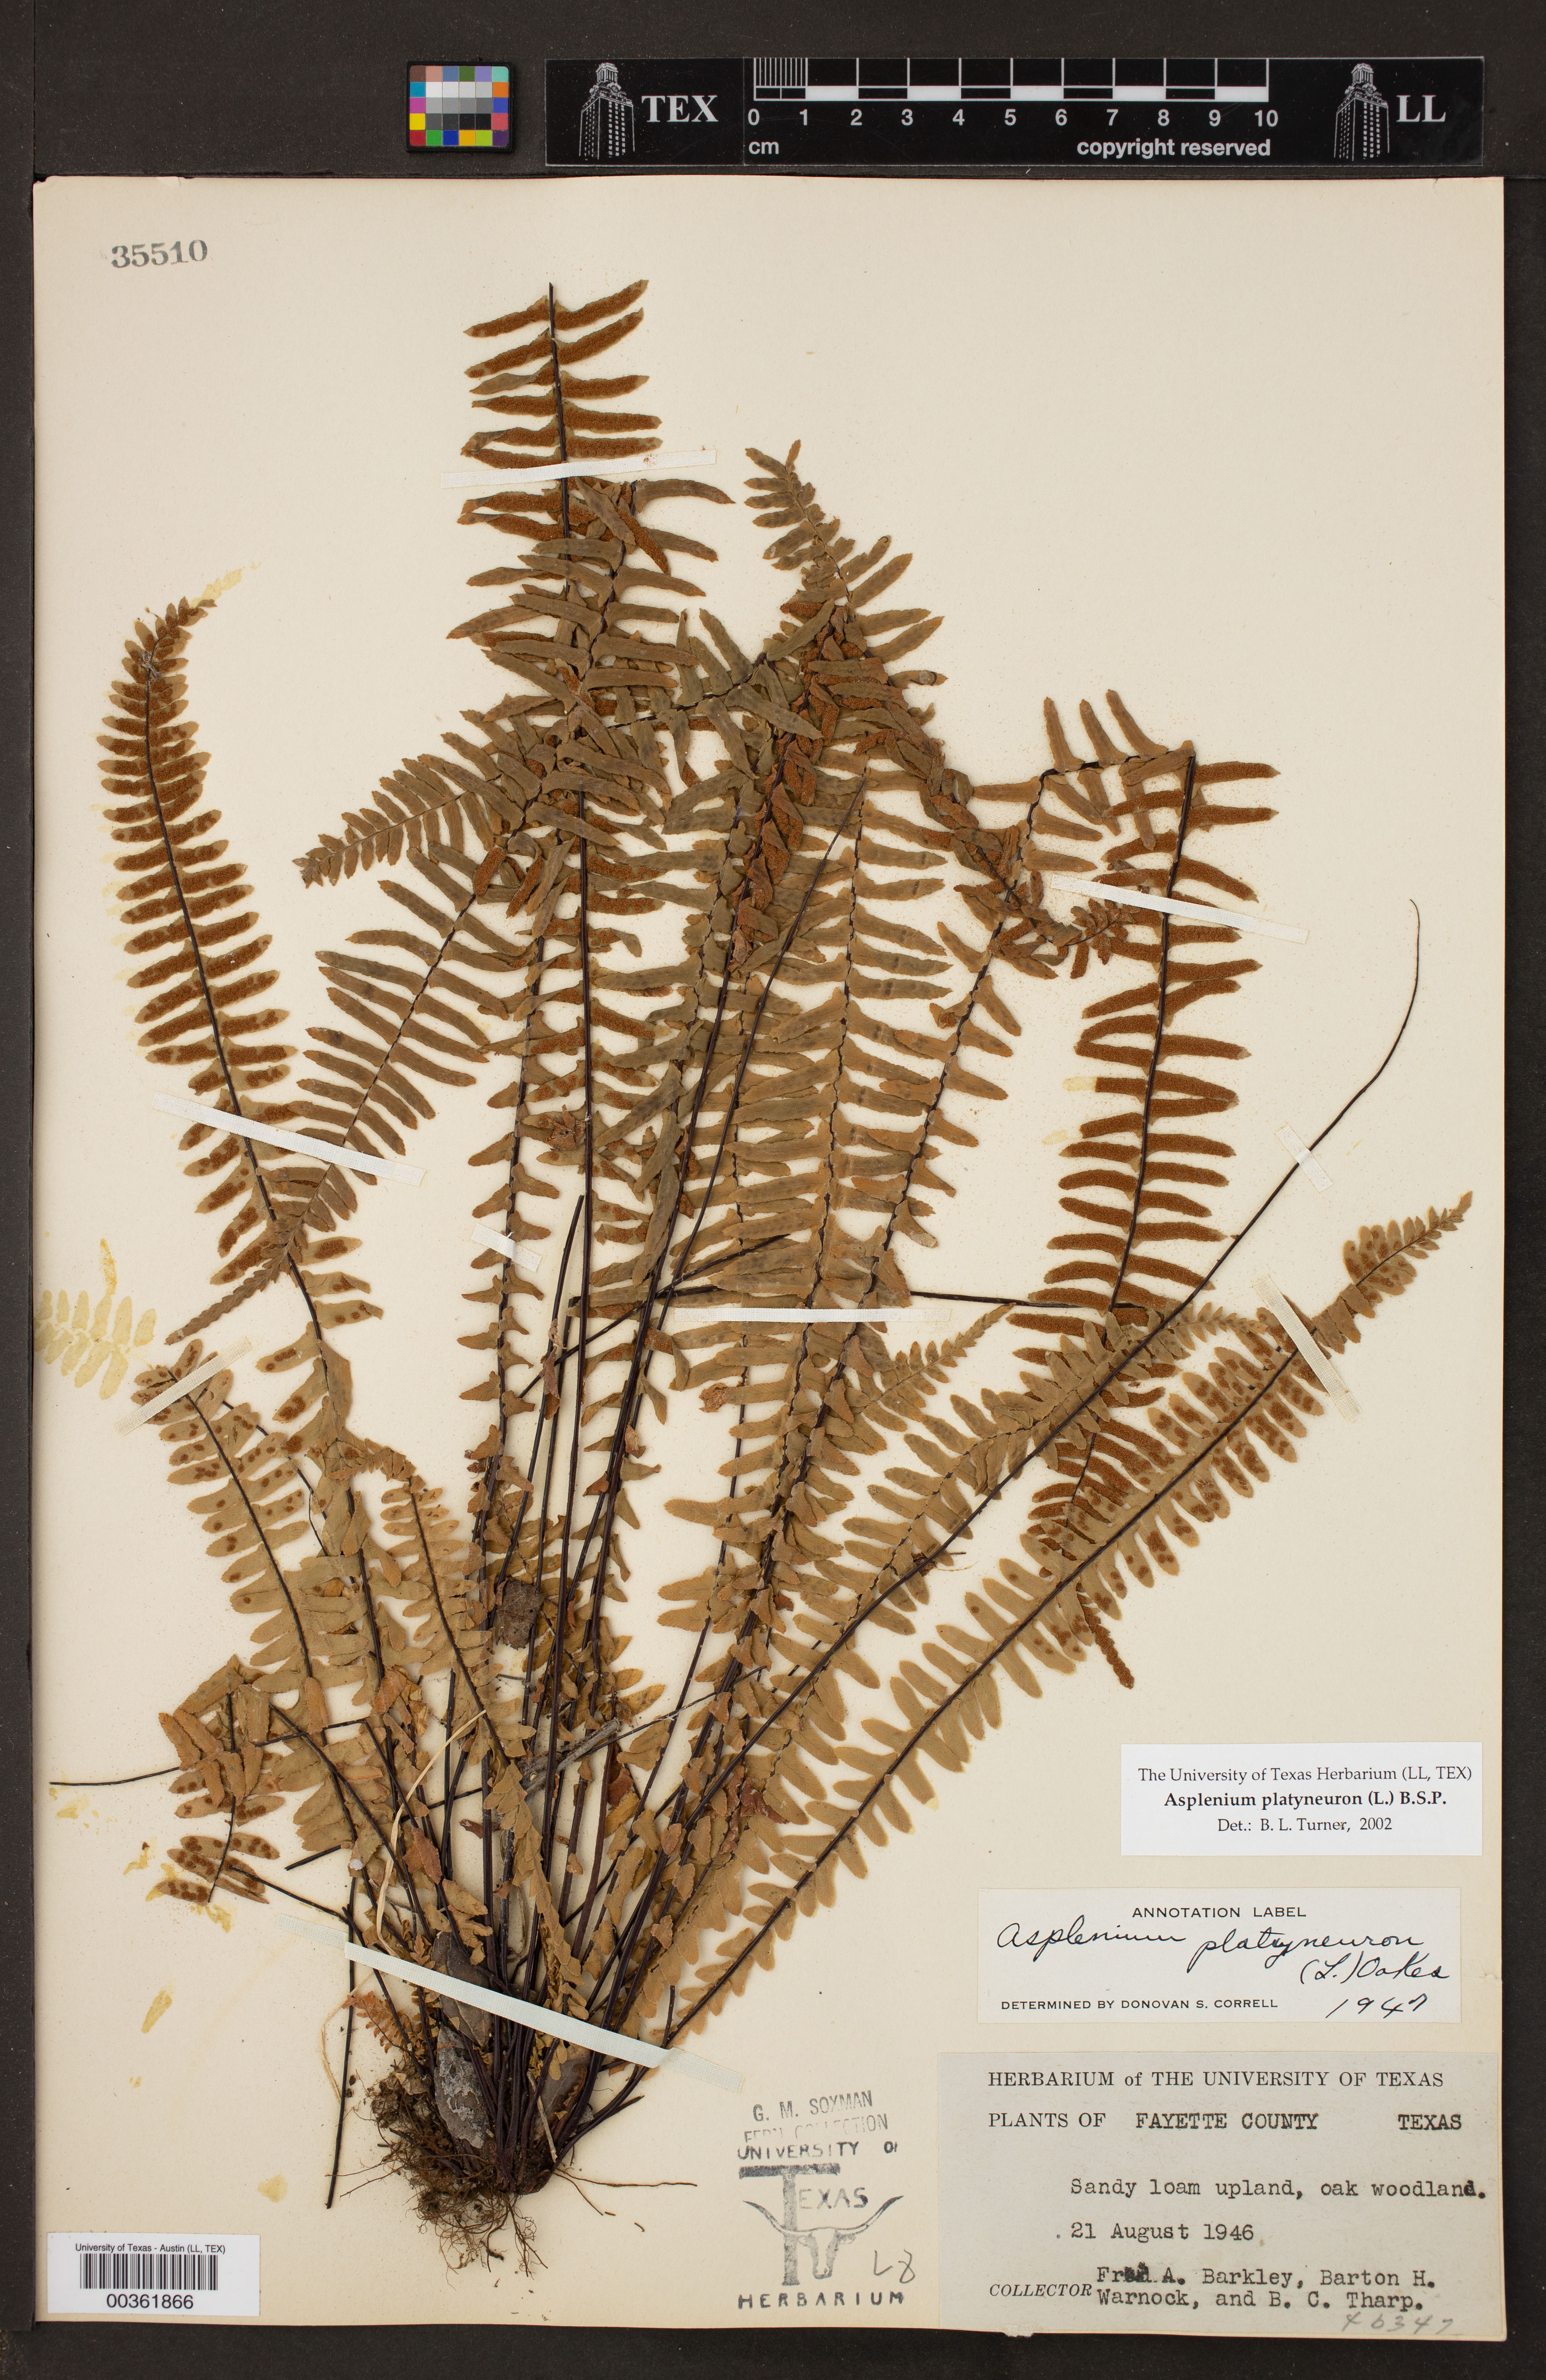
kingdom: Plantae
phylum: Tracheophyta
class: Polypodiopsida
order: Polypodiales
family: Aspleniaceae
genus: Asplenium
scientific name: Asplenium platyneuron
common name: Ebony spleenwort
